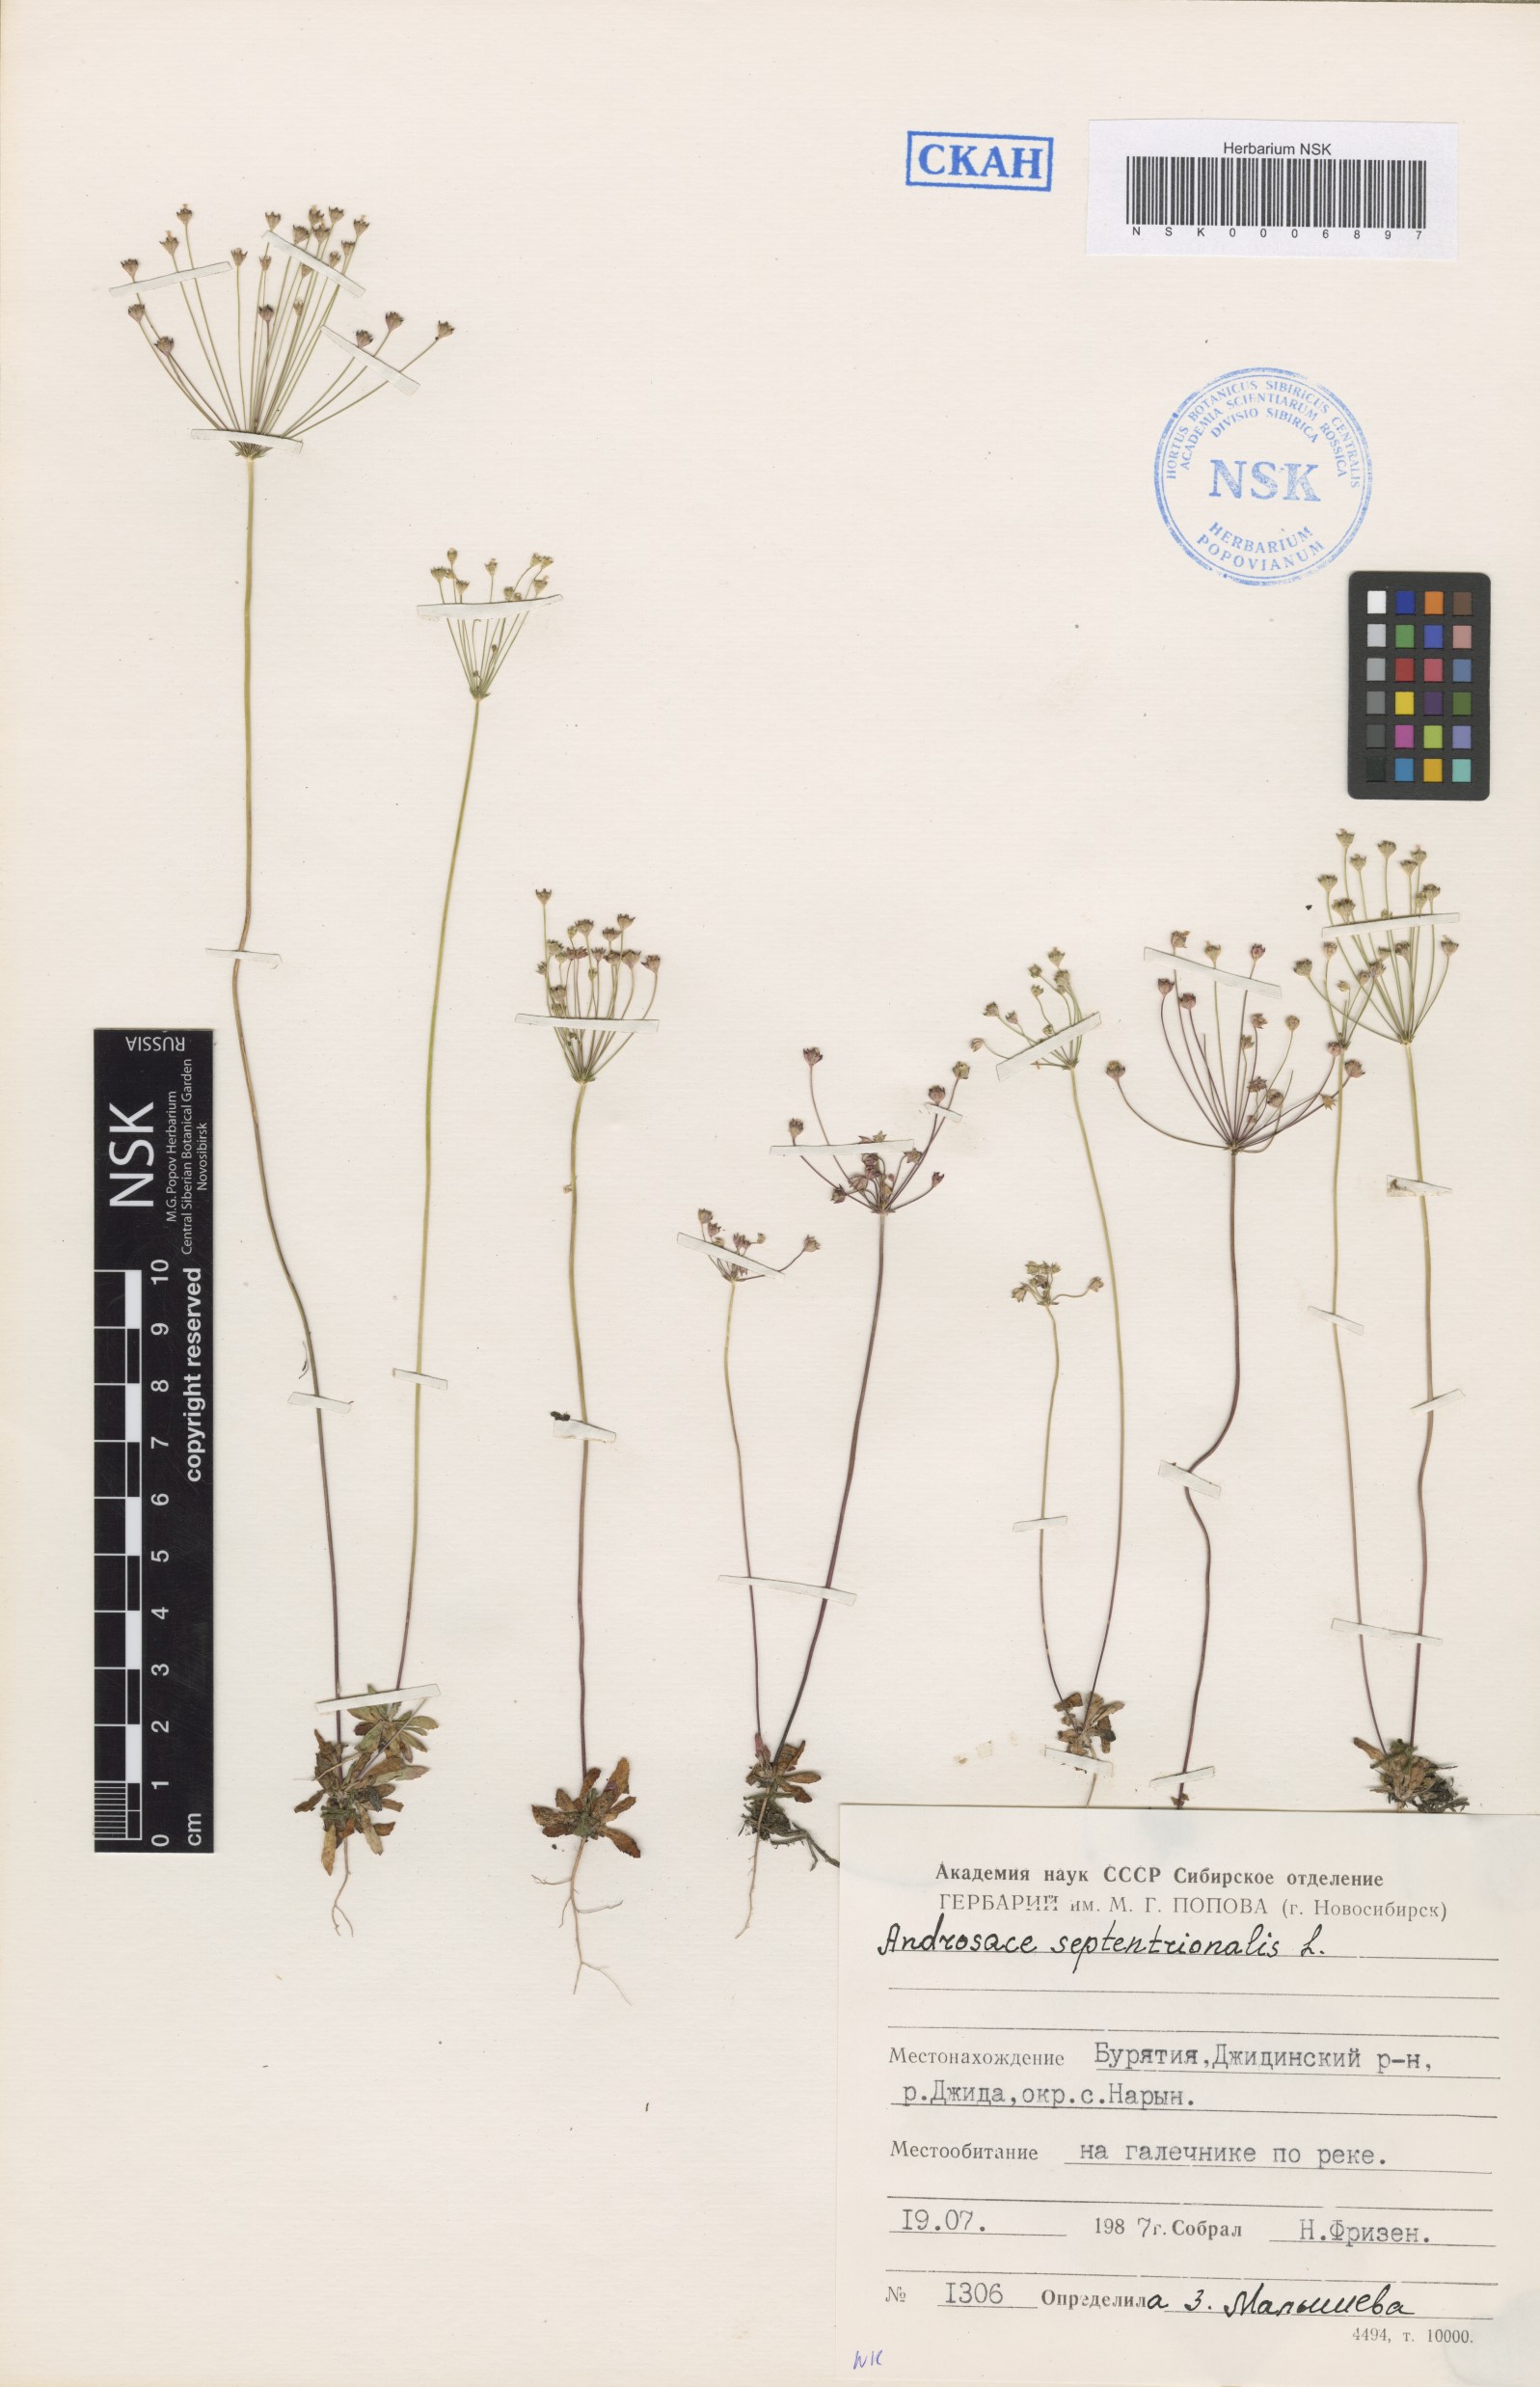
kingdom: Plantae
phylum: Tracheophyta
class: Magnoliopsida
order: Ericales
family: Primulaceae
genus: Androsace
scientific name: Androsace septentrionalis
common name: Hairy northern fairy-candelabra
